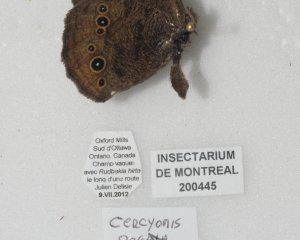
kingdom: Animalia
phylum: Arthropoda
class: Insecta
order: Lepidoptera
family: Nymphalidae
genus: Cercyonis
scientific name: Cercyonis pegala
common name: Common Wood-Nymph
